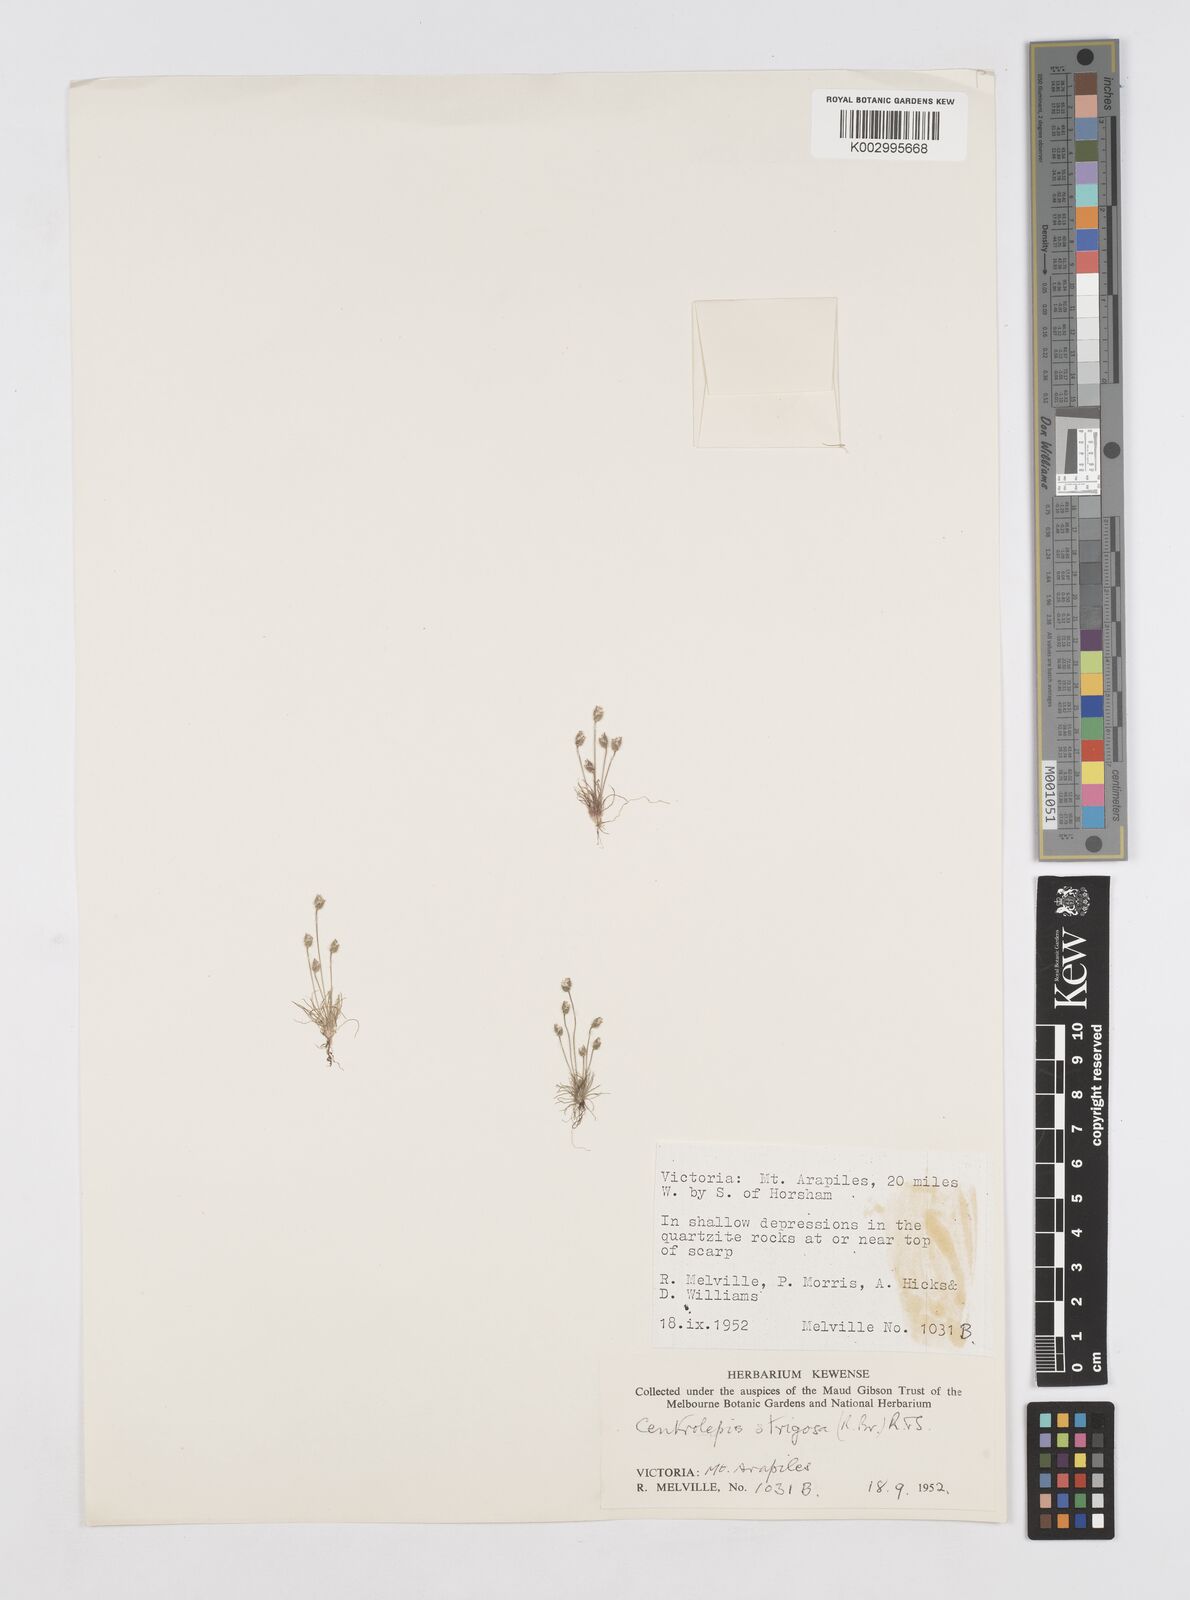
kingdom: Plantae
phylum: Tracheophyta
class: Liliopsida
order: Poales
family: Restionaceae
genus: Centrolepis
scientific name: Centrolepis strigosa
